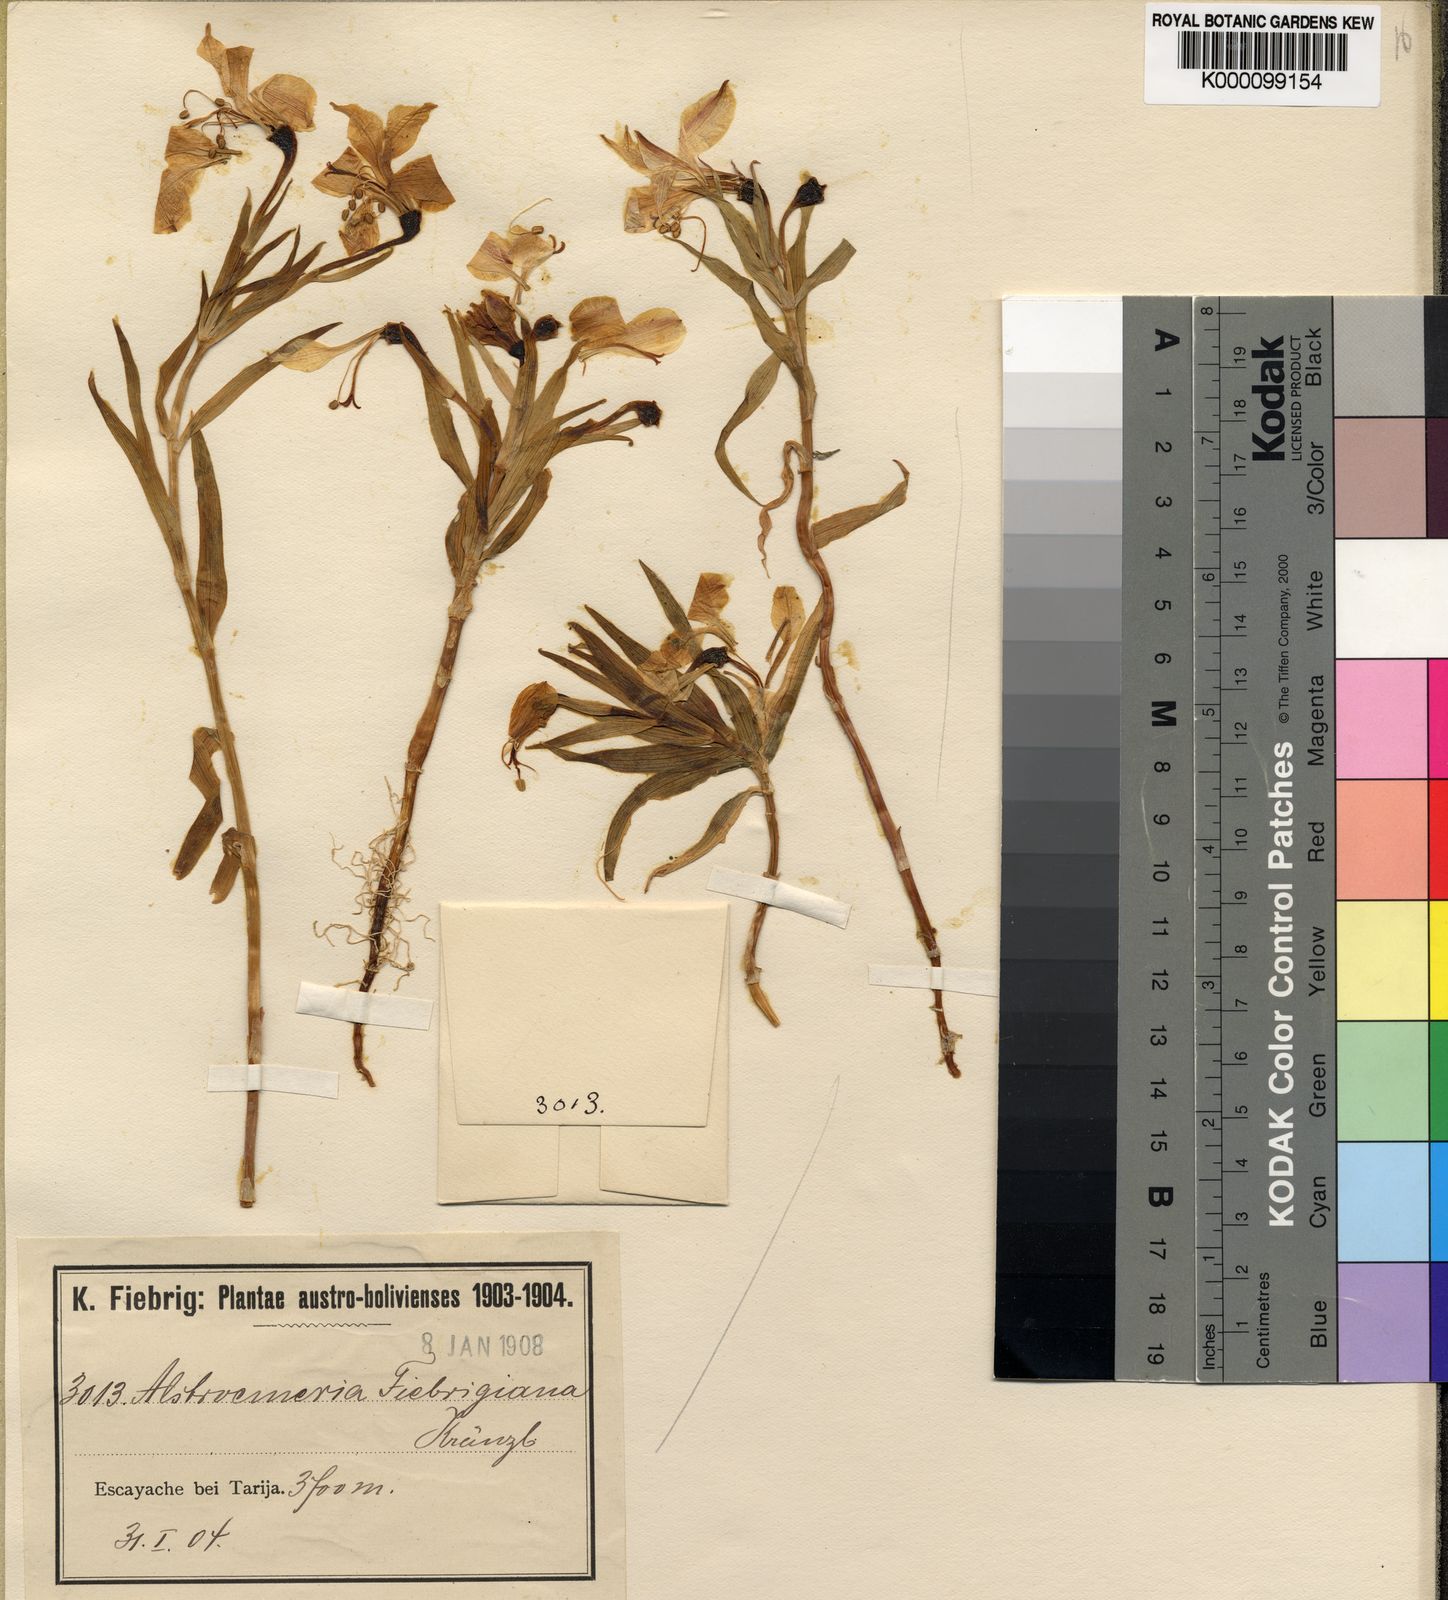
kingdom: Plantae
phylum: Tracheophyta
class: Liliopsida
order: Liliales
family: Alstroemeriaceae
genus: Alstroemeria
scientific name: Alstroemeria fiebrigiana
